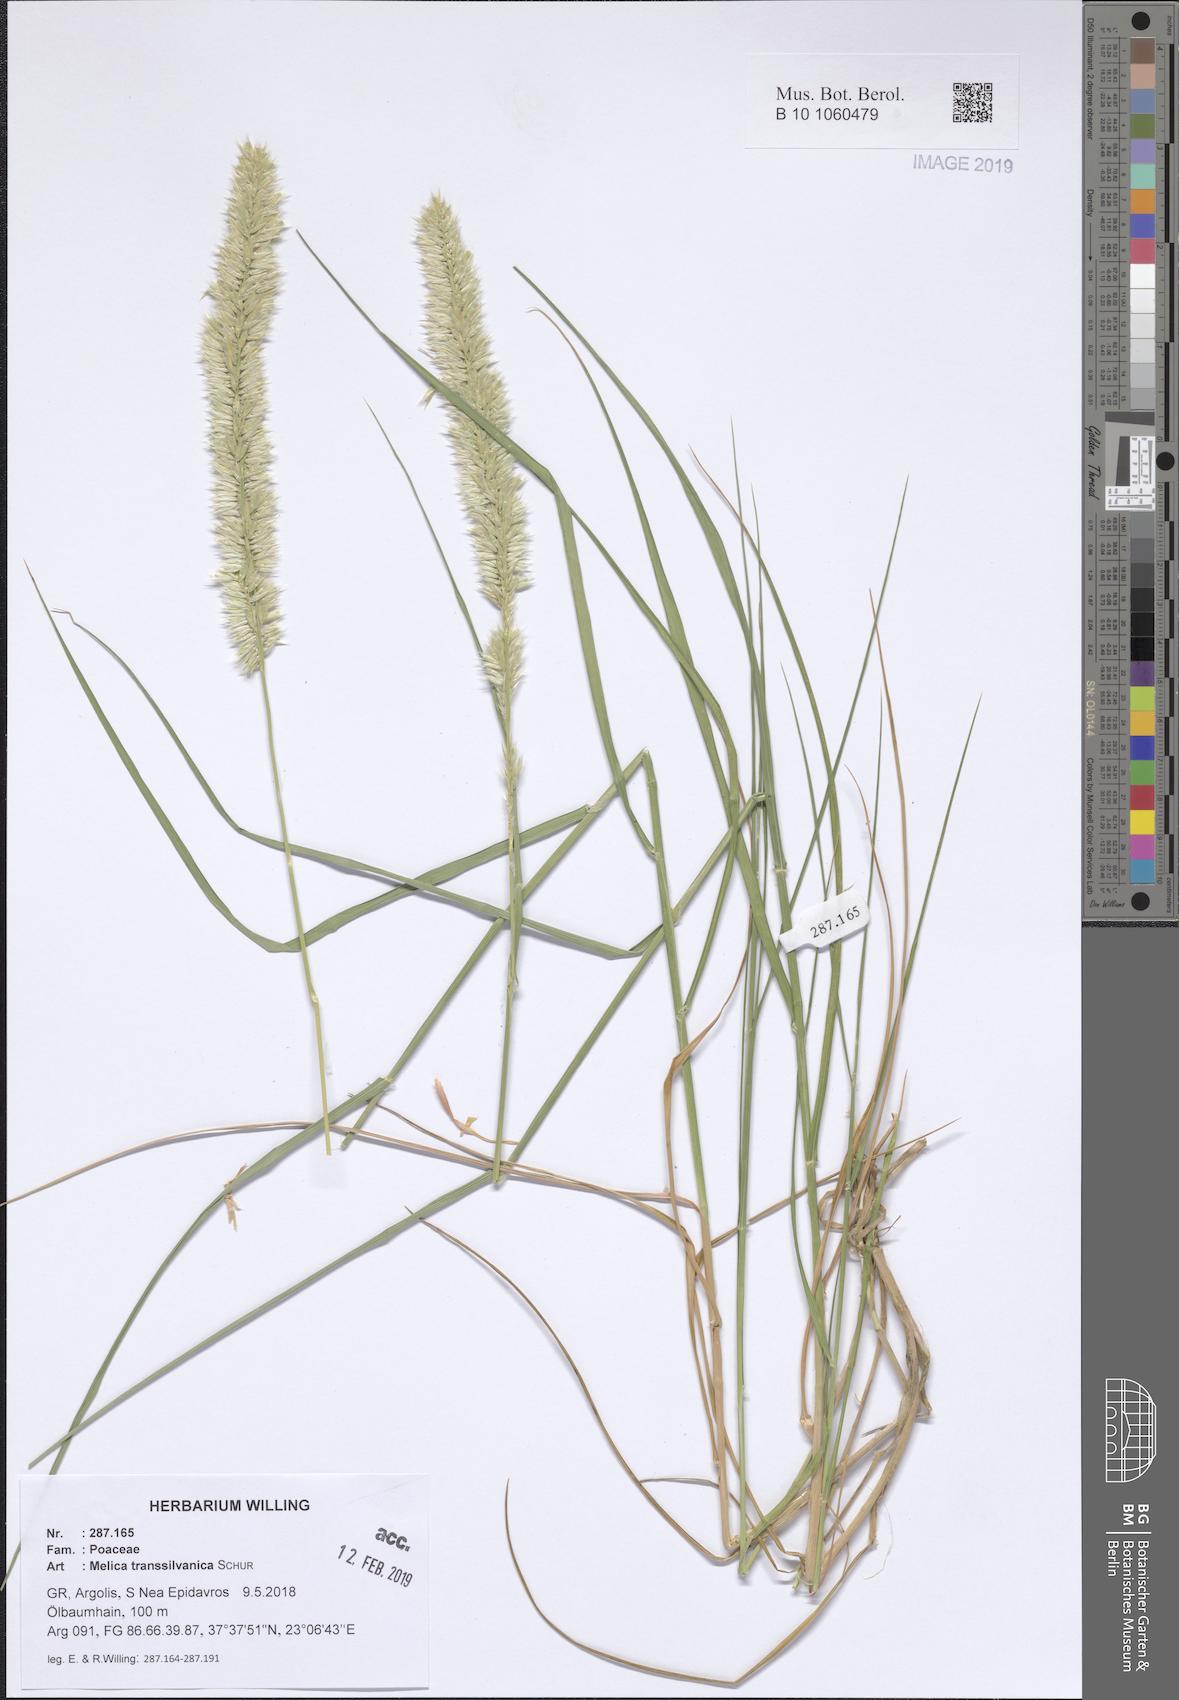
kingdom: Plantae
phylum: Tracheophyta
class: Liliopsida
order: Poales
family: Poaceae
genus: Melica
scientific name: Melica transsilvanica
